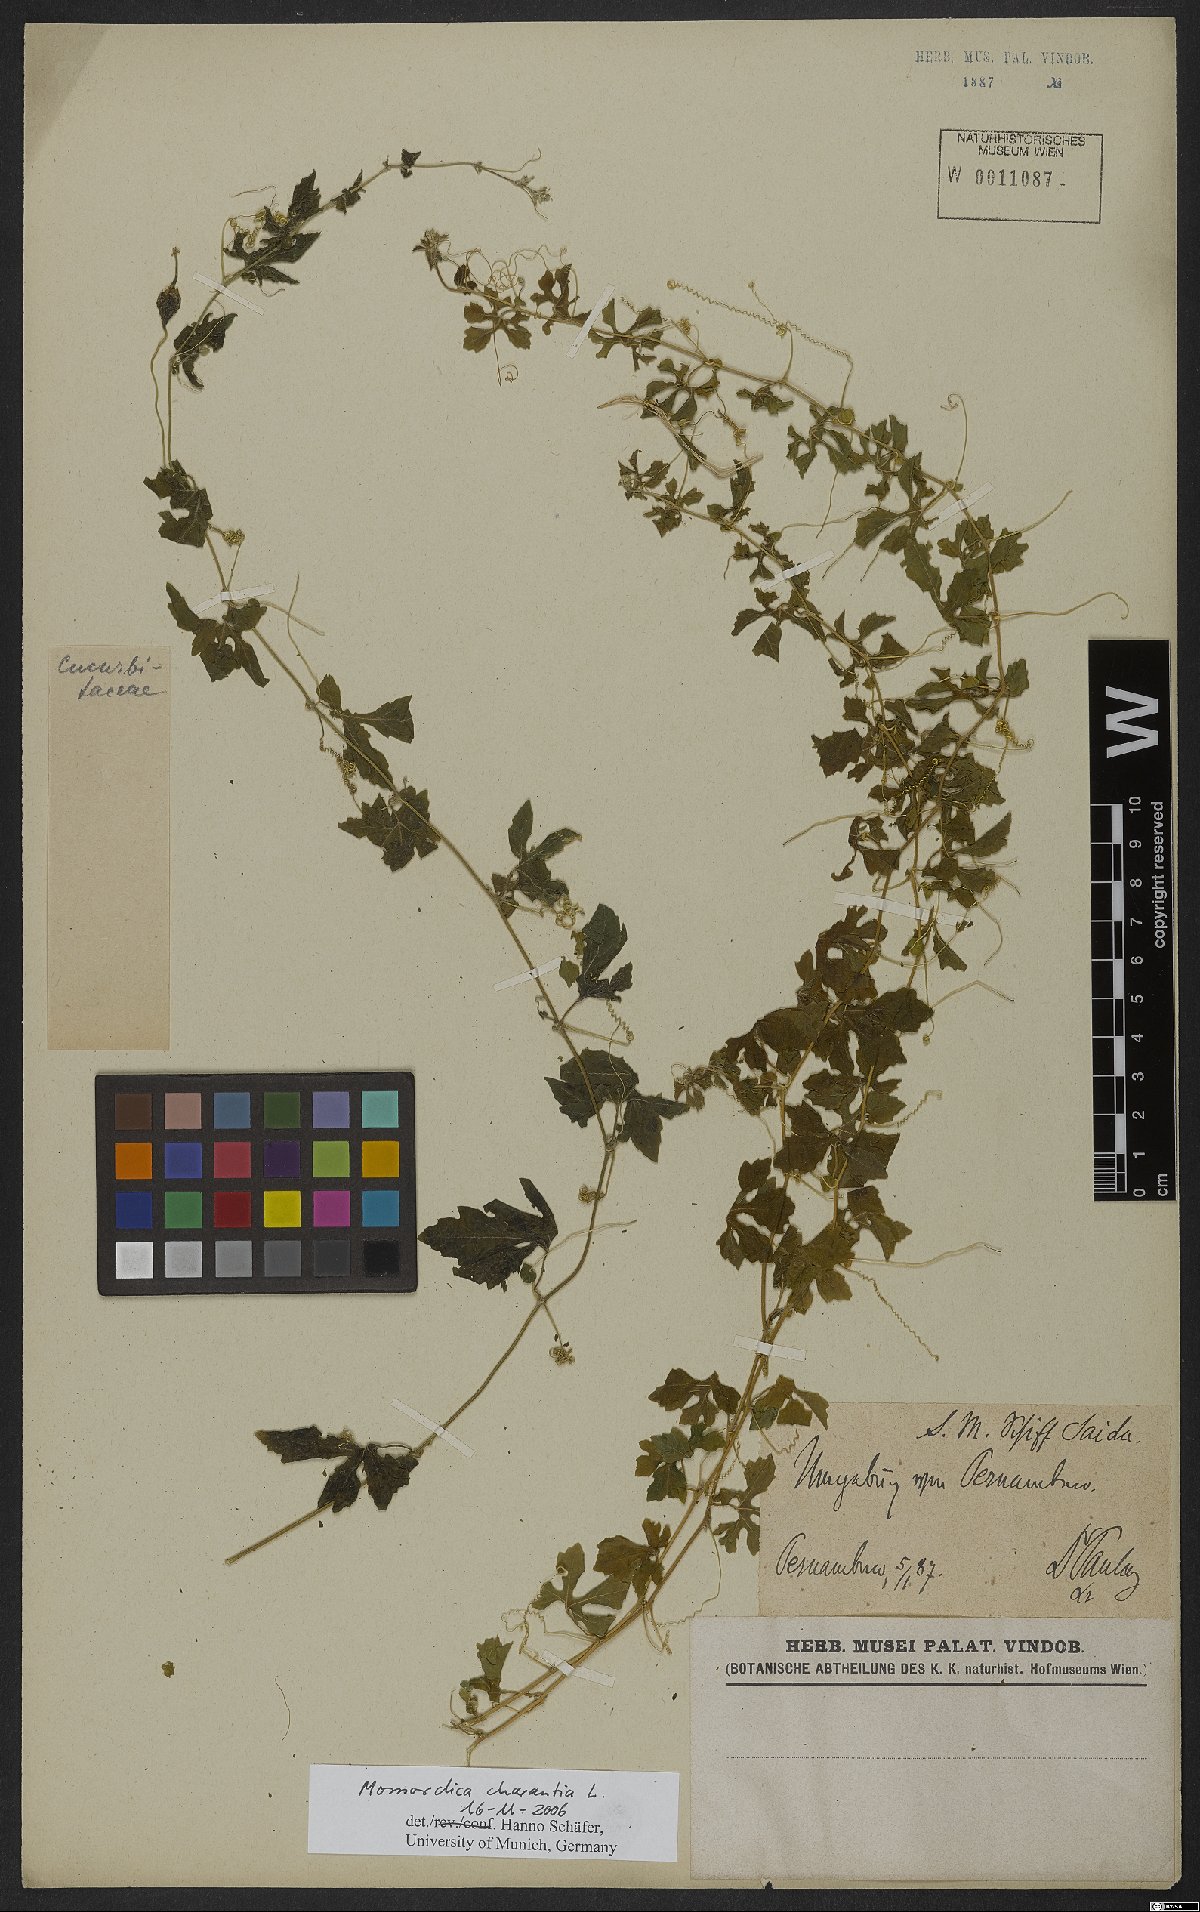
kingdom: Plantae
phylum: Tracheophyta
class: Magnoliopsida
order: Cucurbitales
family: Cucurbitaceae
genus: Momordica
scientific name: Momordica charantia
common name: Balsampear
